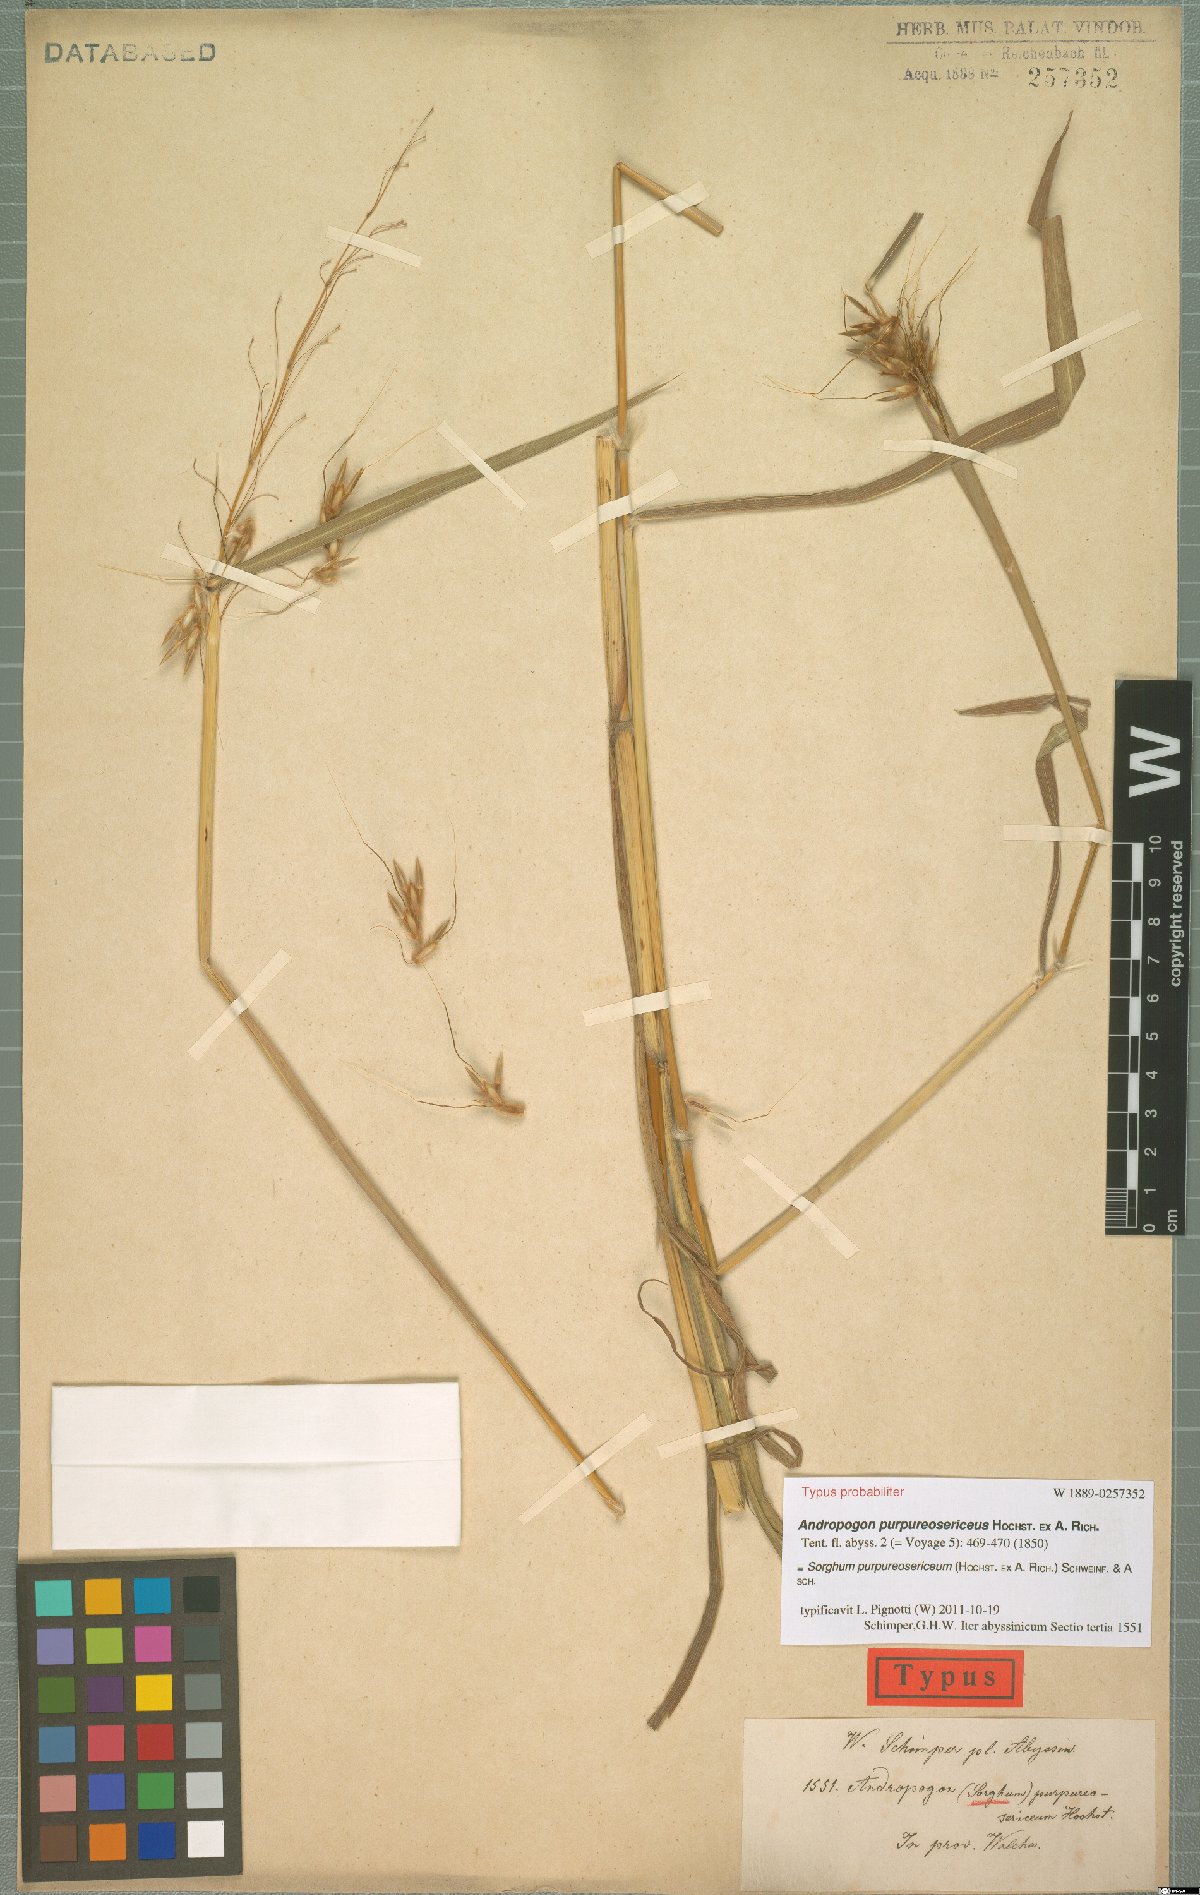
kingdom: Plantae
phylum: Tracheophyta
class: Liliopsida
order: Poales
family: Poaceae
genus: Sarga
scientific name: Sarga purpureosericea
